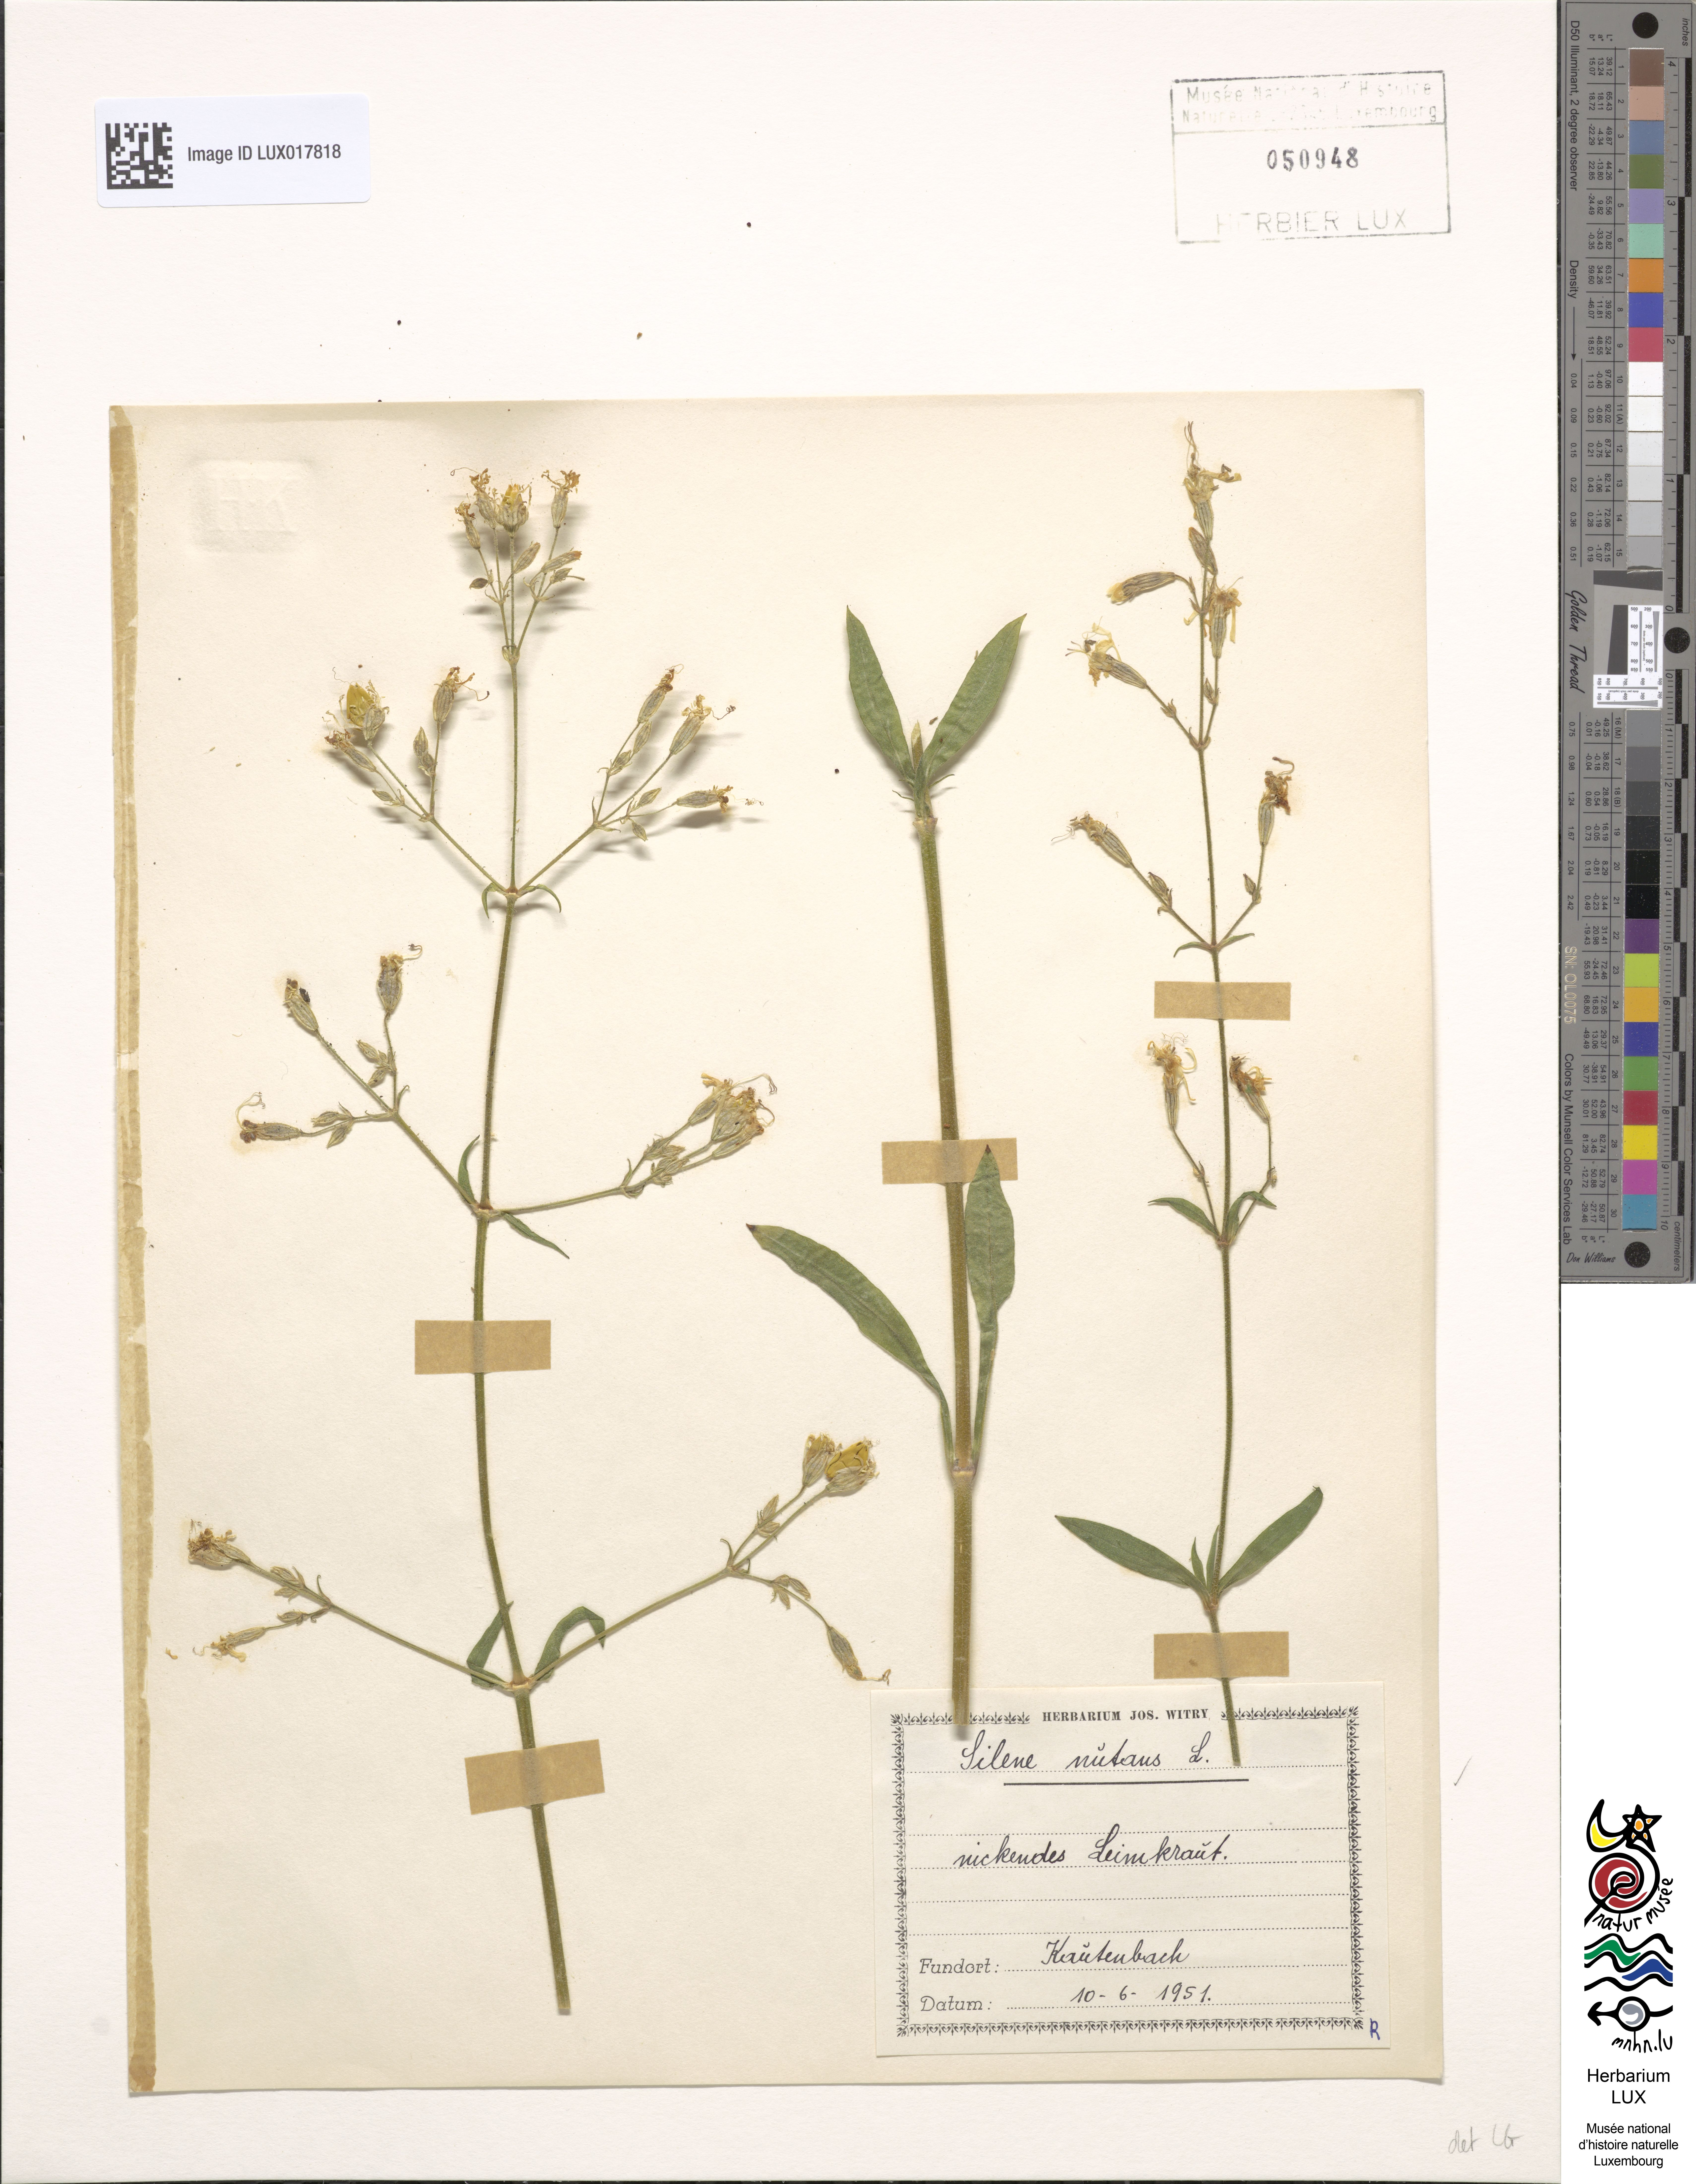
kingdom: Plantae
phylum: Tracheophyta
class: Magnoliopsida
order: Caryophyllales
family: Caryophyllaceae
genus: Silene
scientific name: Silene nutans
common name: Nottingham catchfly
